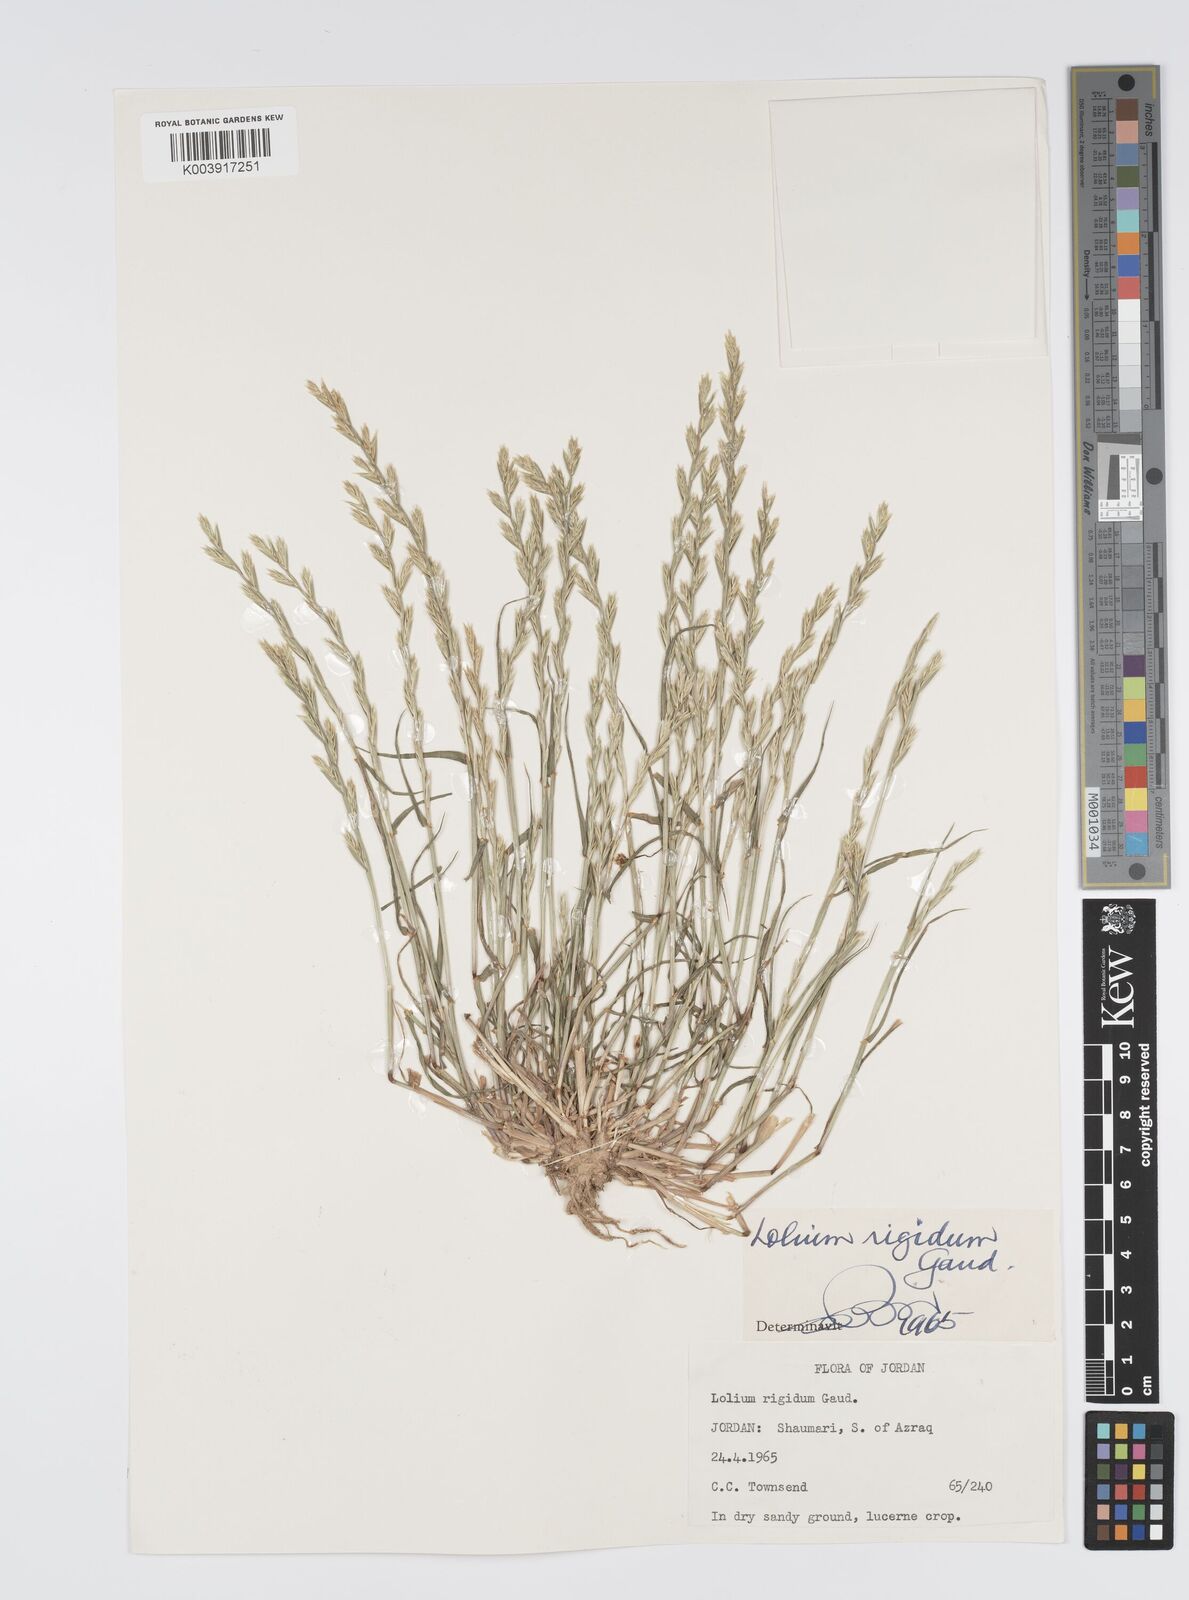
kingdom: Plantae
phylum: Tracheophyta
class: Liliopsida
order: Poales
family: Poaceae
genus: Lolium
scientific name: Lolium rigidum
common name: Wimmera ryegrass
